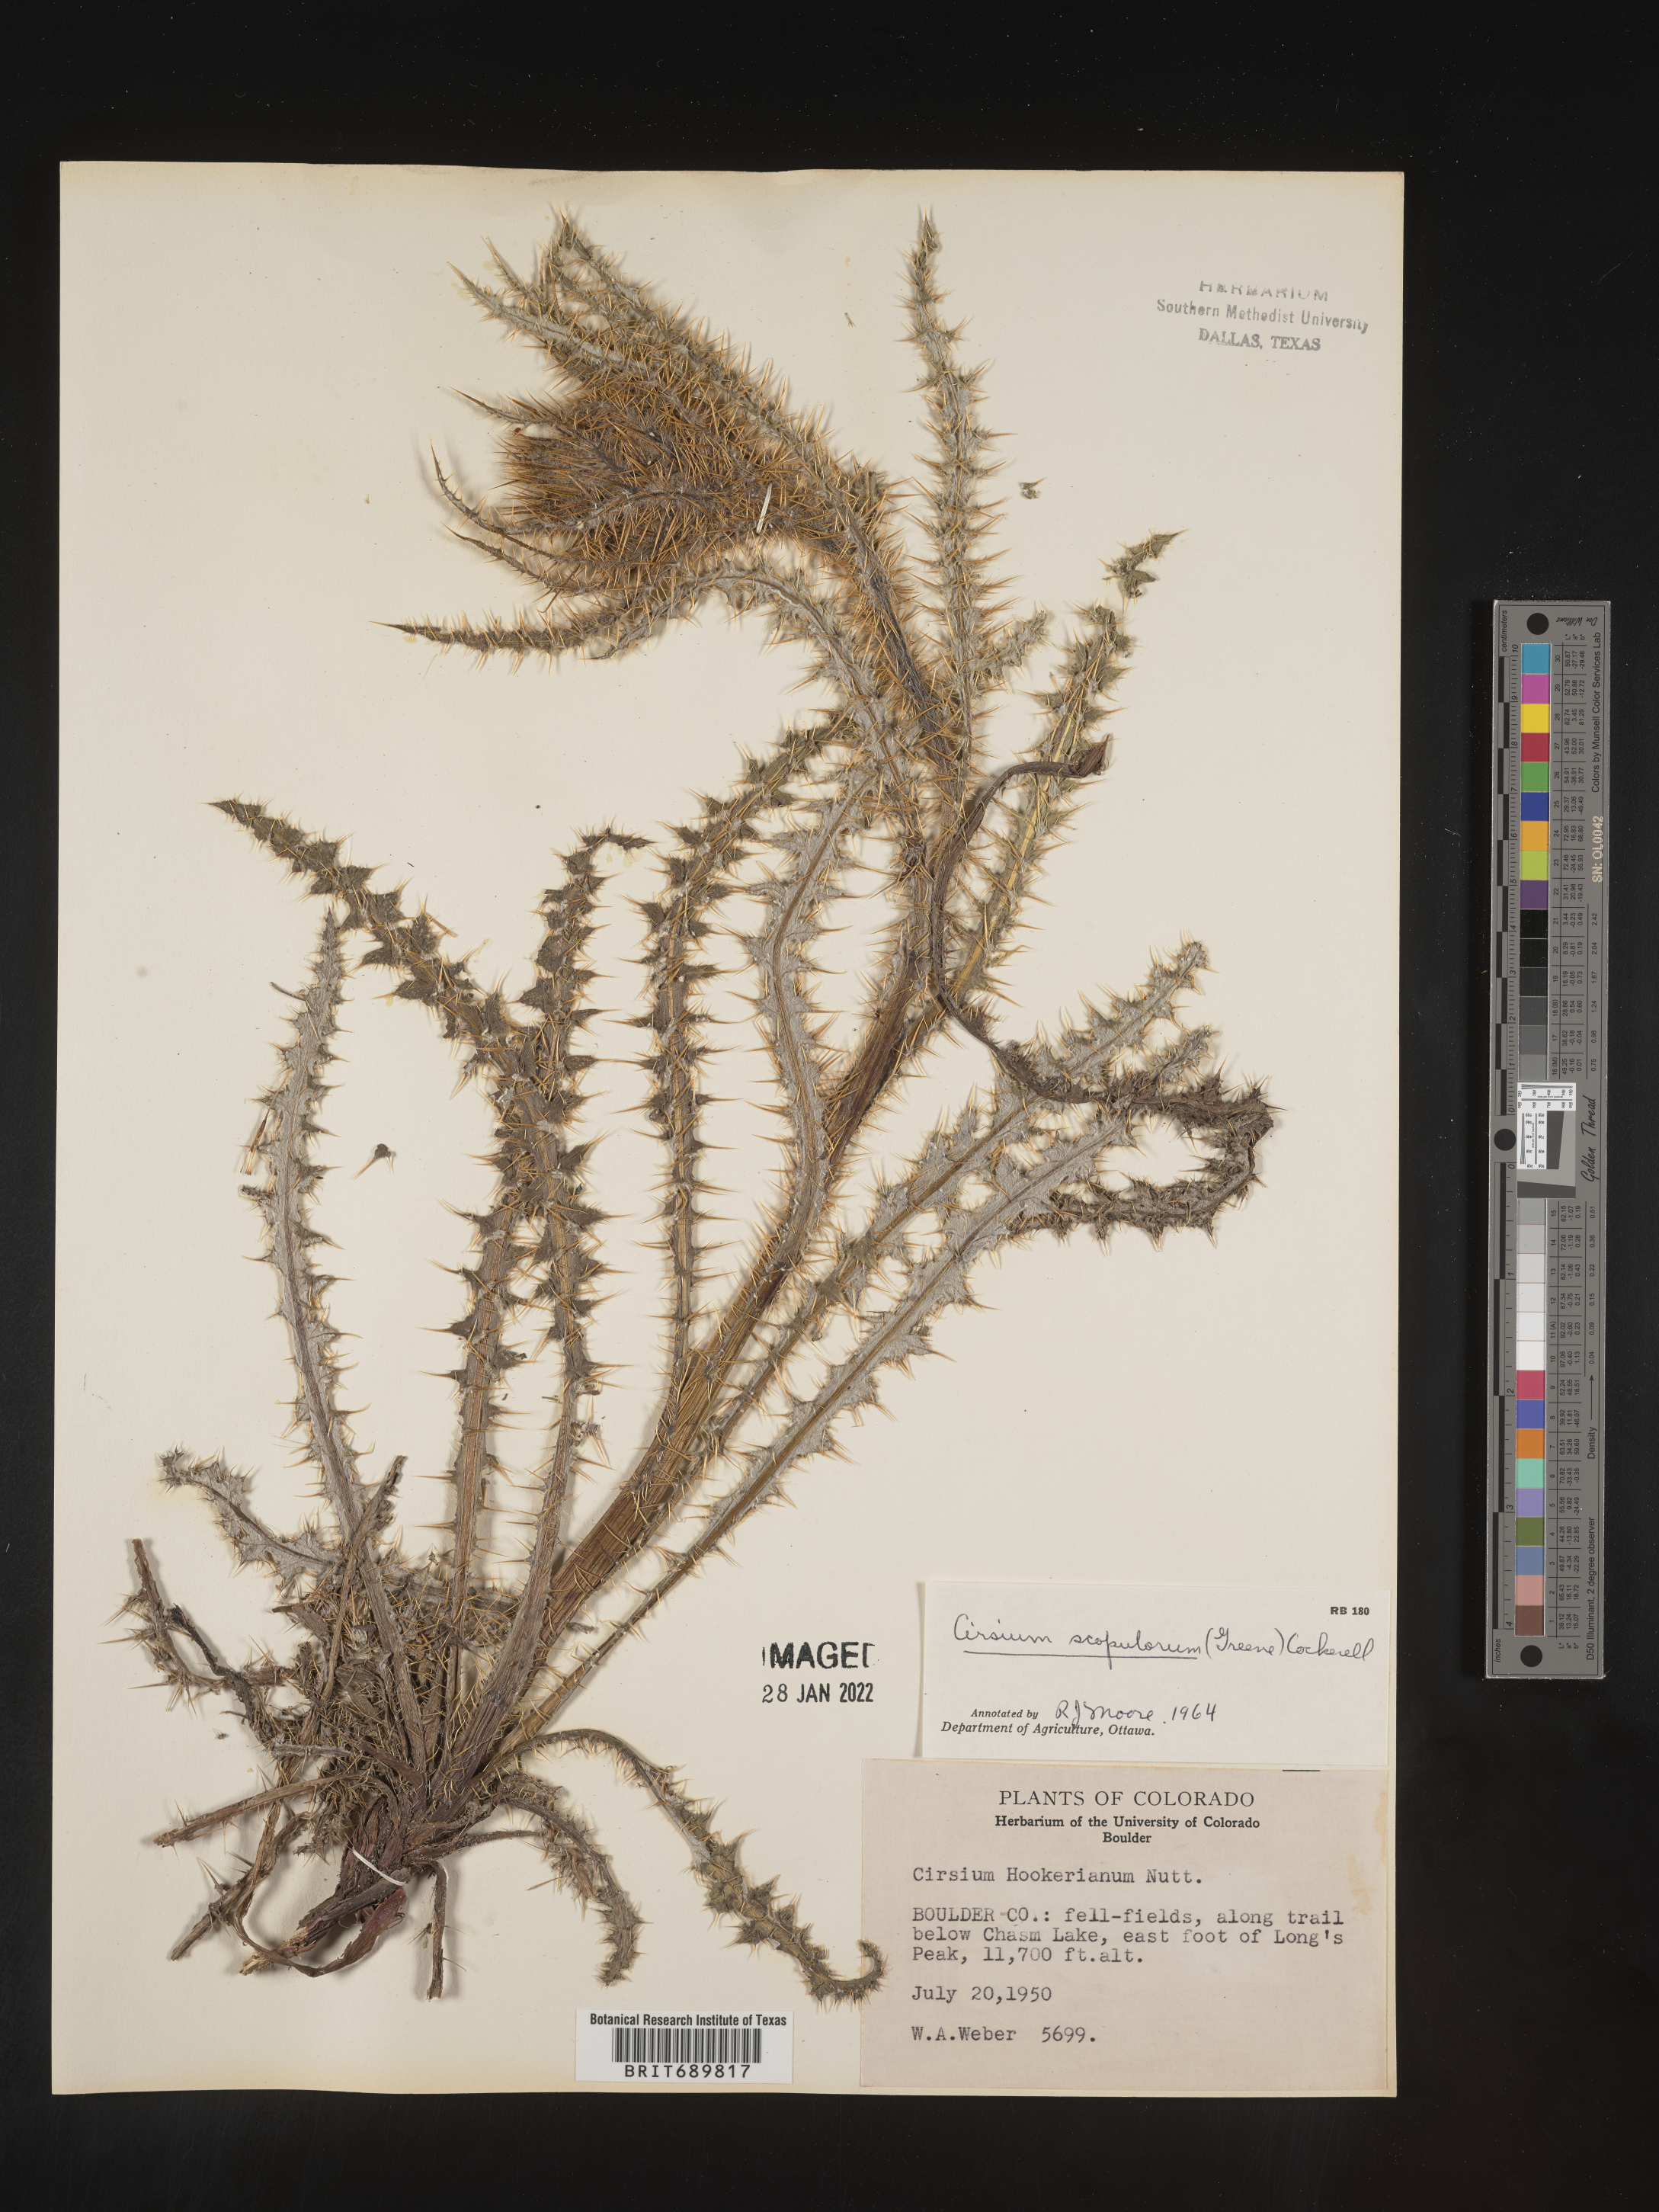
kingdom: Plantae
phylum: Tracheophyta
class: Magnoliopsida
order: Asterales
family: Asteraceae
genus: Cirsium
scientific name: Cirsium scopulorum
